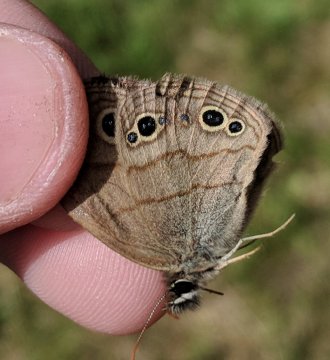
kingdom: Animalia
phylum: Arthropoda
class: Insecta
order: Lepidoptera
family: Nymphalidae
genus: Euptychia
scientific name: Euptychia cymela
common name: Little Wood Satyr
